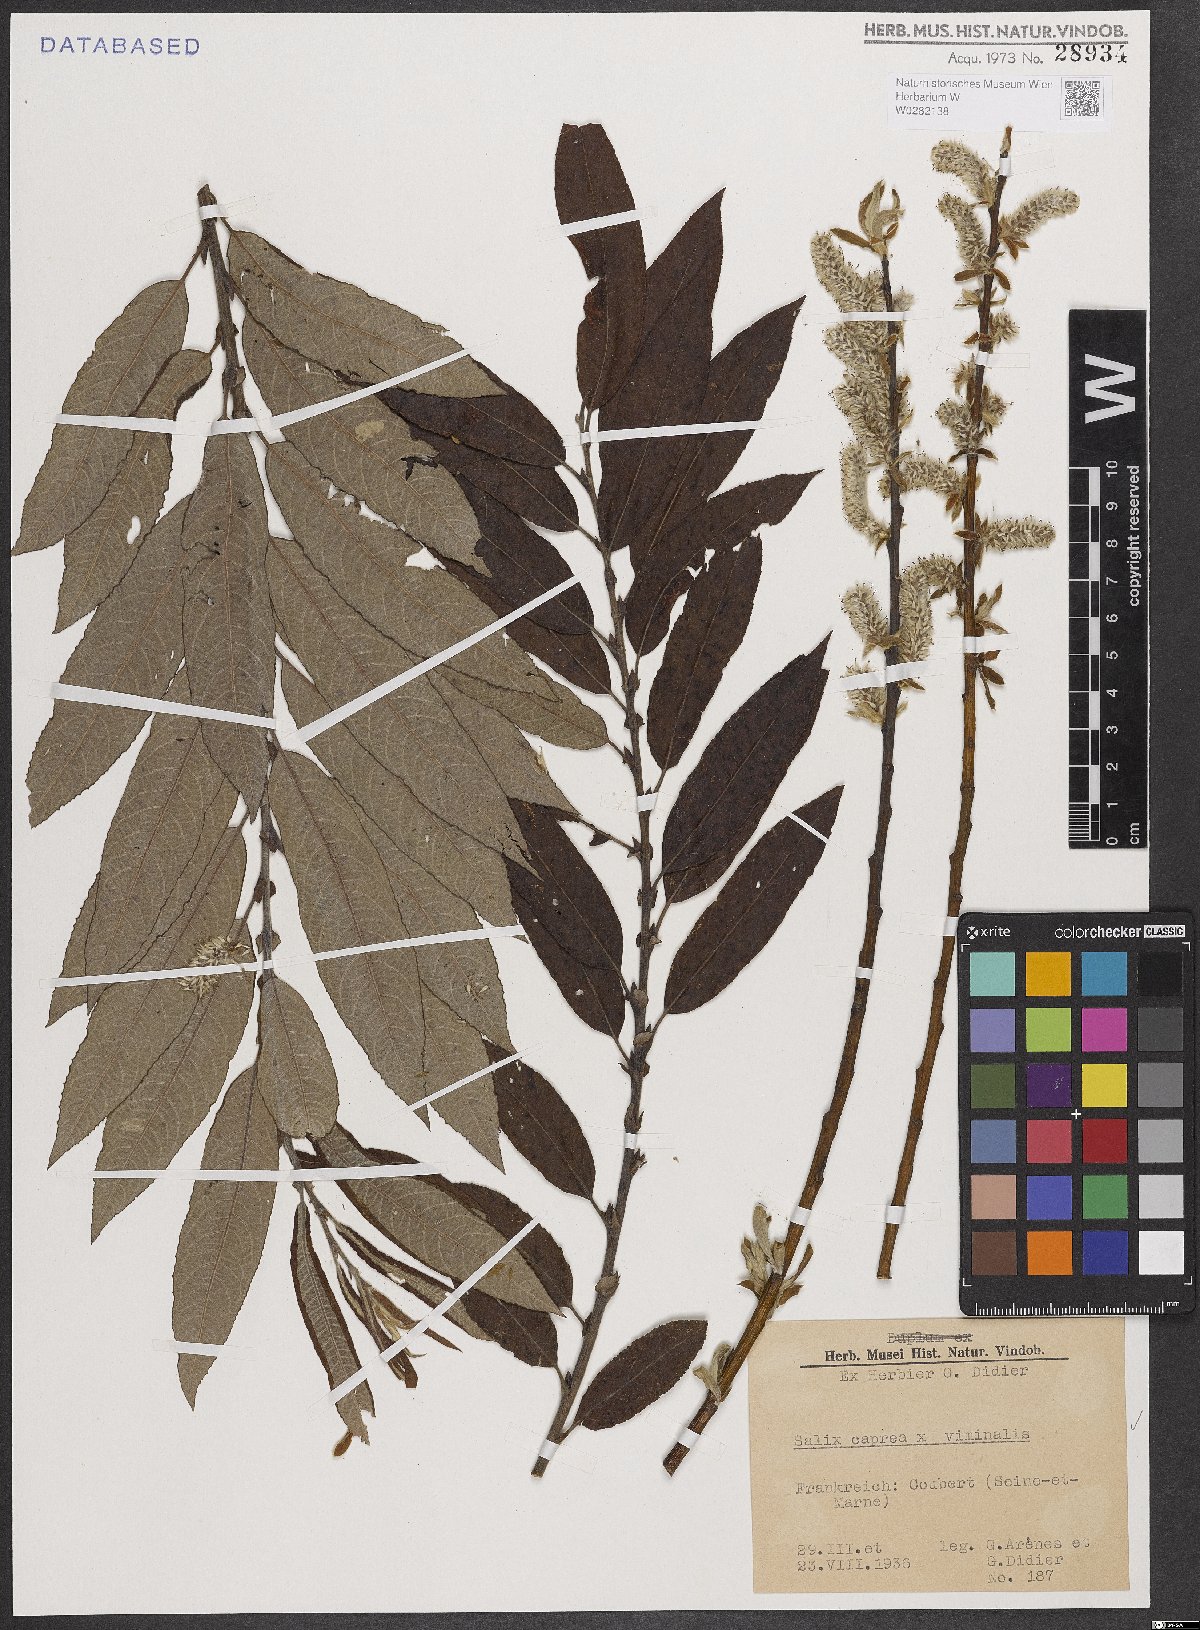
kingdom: Plantae
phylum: Tracheophyta
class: Magnoliopsida
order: Malpighiales
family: Salicaceae
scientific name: Salicaceae
